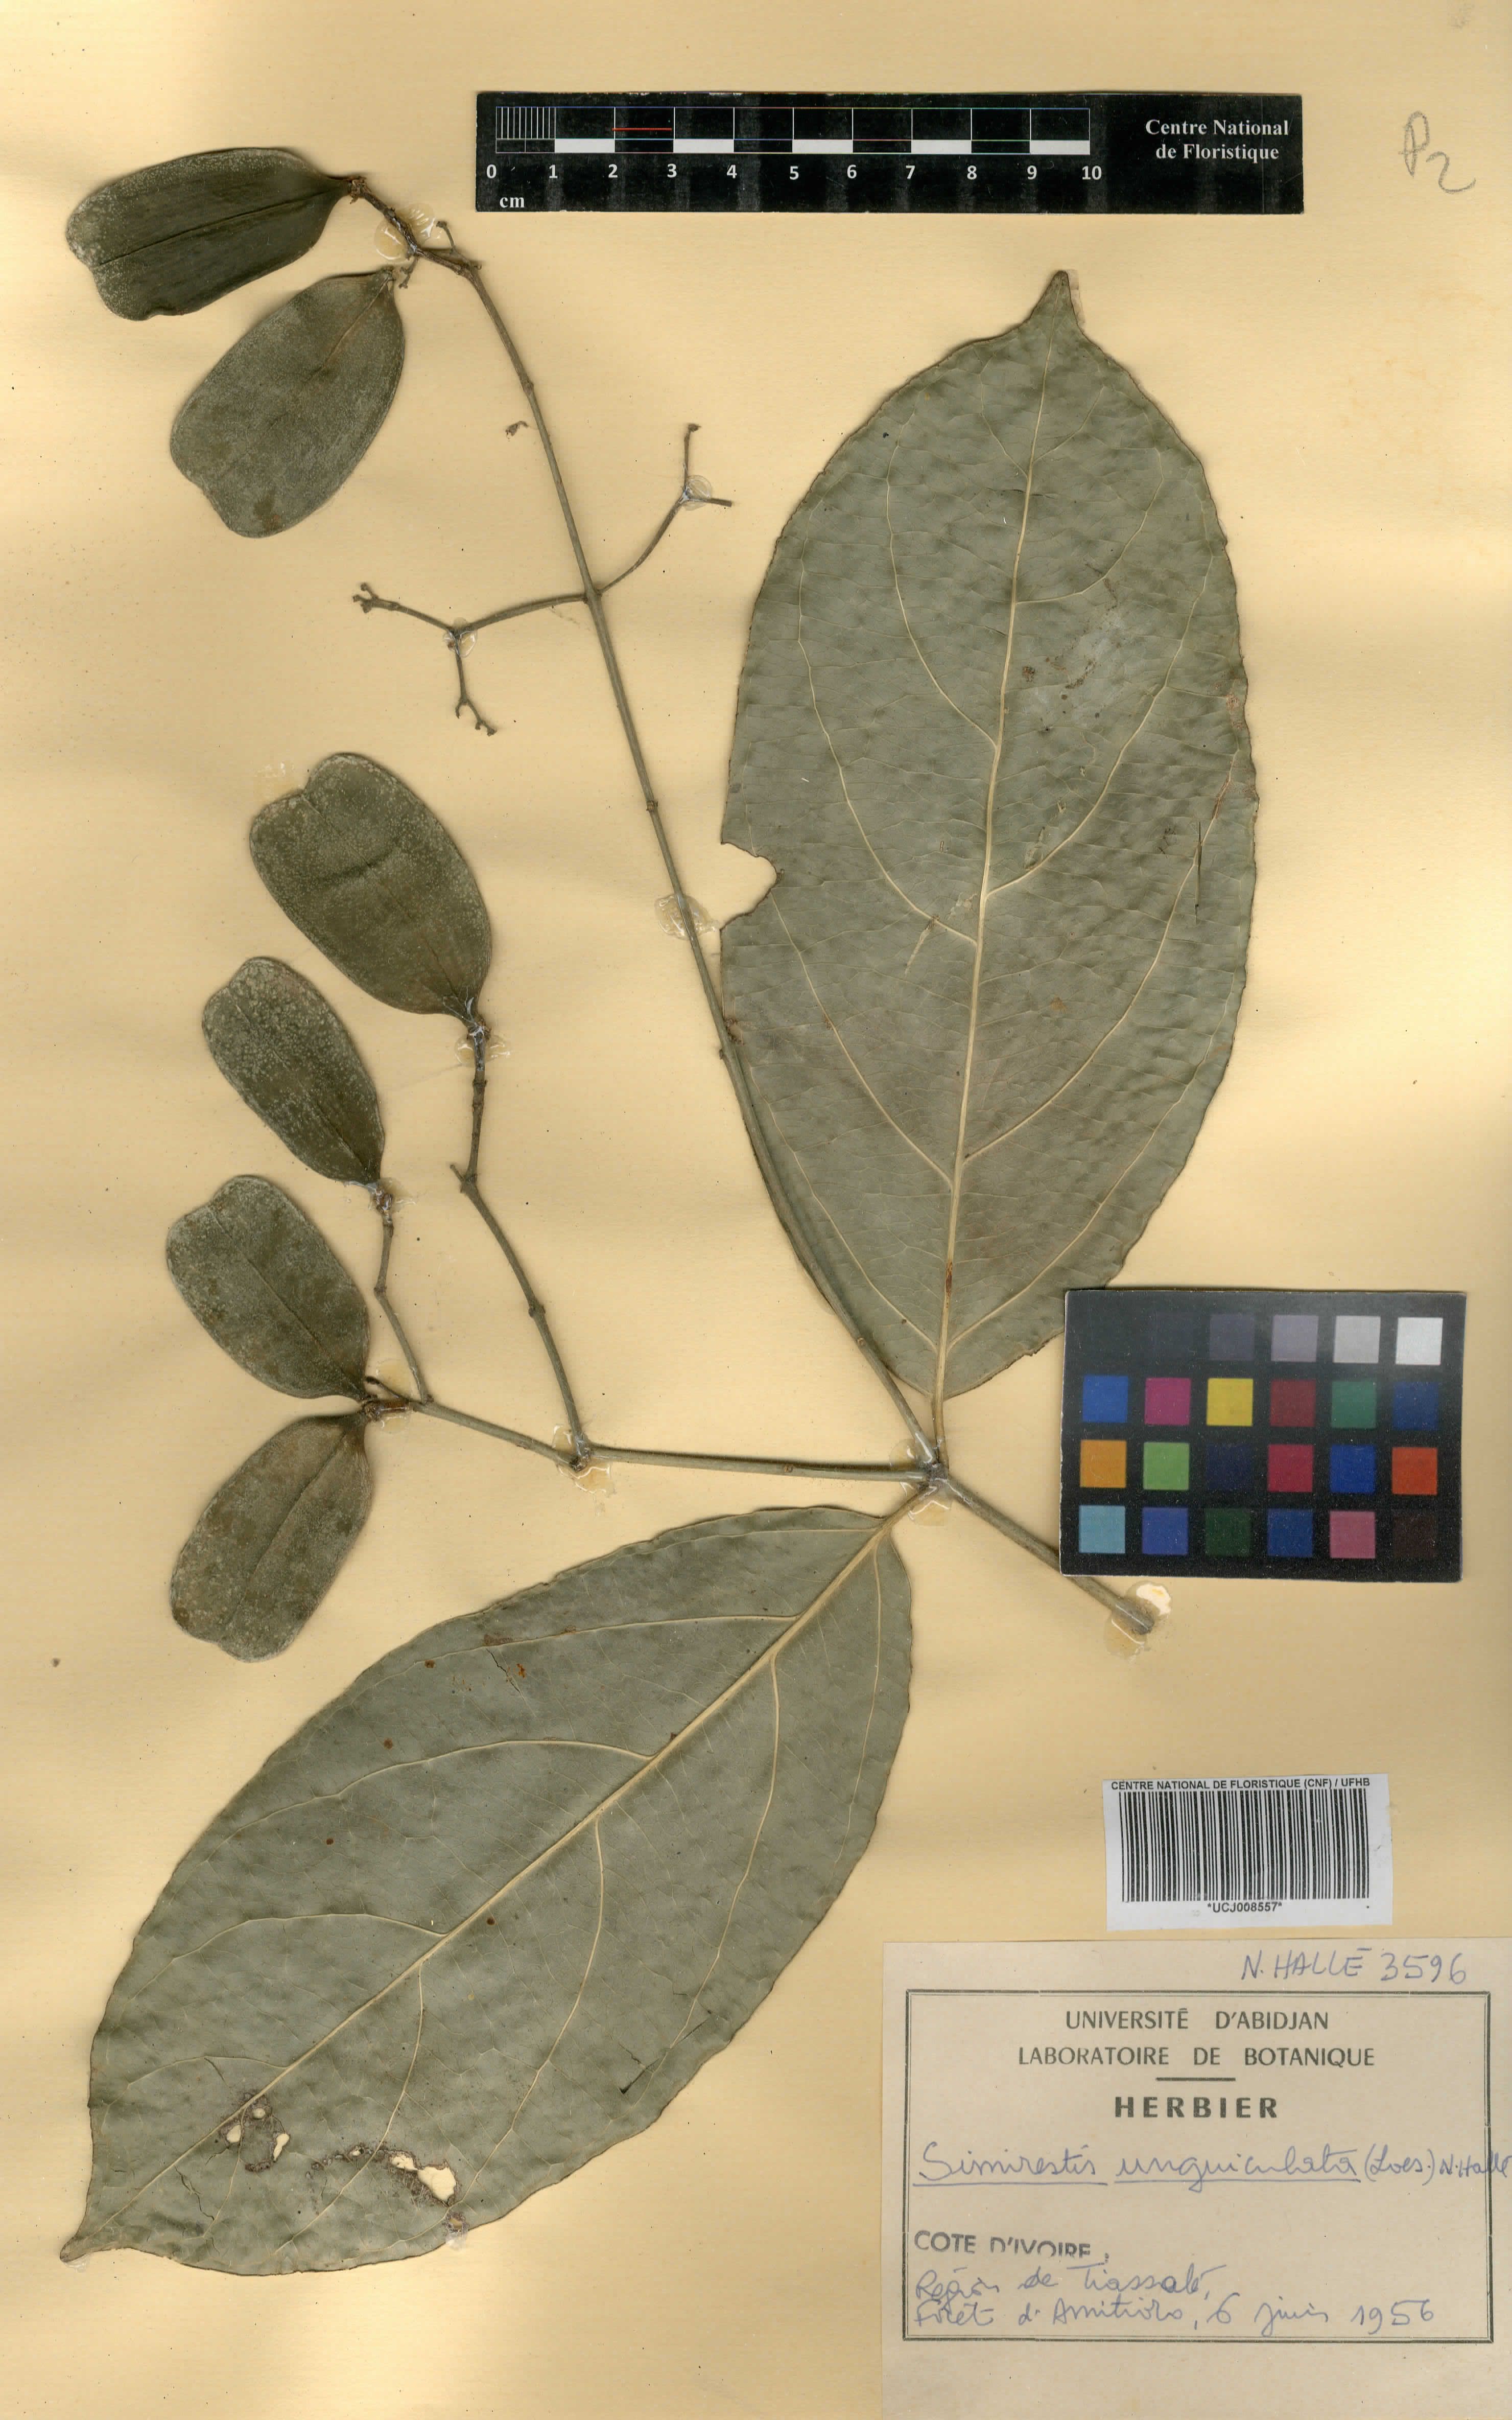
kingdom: Plantae
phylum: Tracheophyta
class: Magnoliopsida
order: Celastrales
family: Celastraceae
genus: Pristimera
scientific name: Pristimera unguiculata
